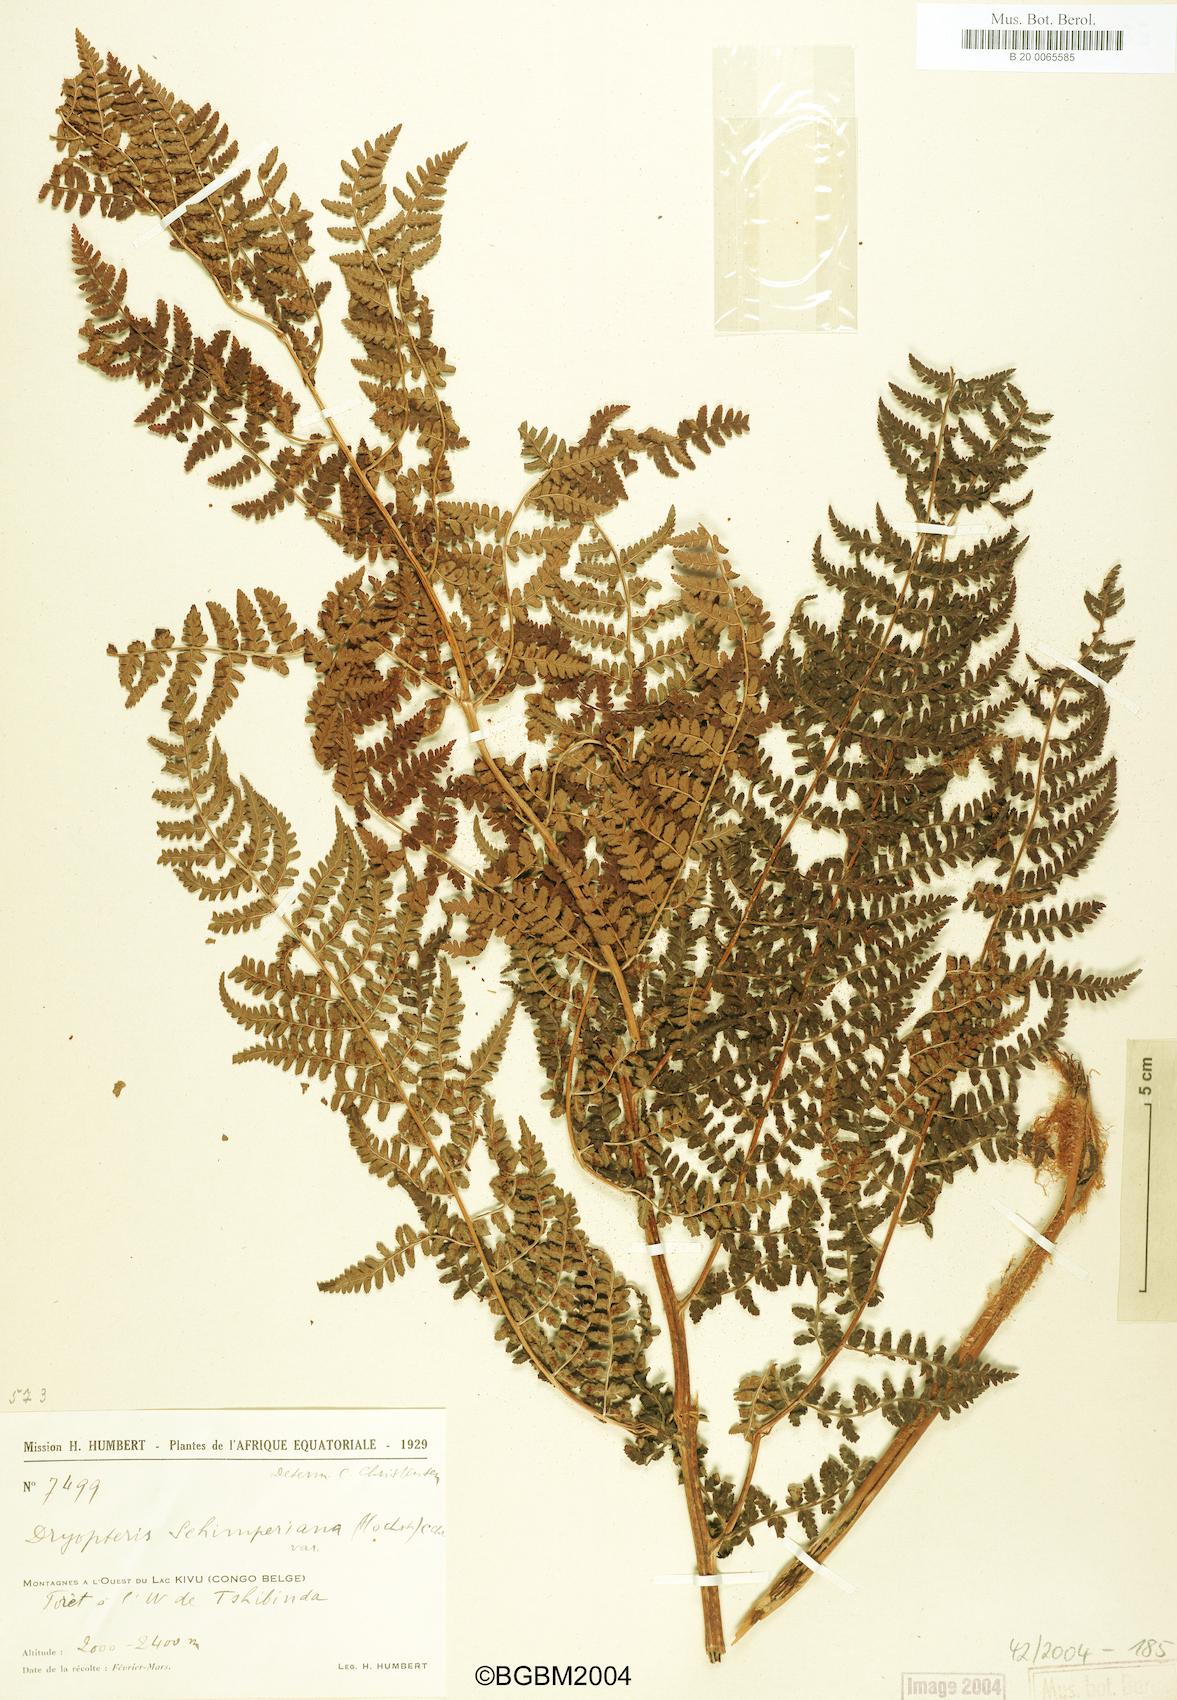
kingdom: Plantae
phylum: Tracheophyta
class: Polypodiopsida
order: Polypodiales
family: Dryopteridaceae
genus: Dryopteris
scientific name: Dryopteris schimperiana
